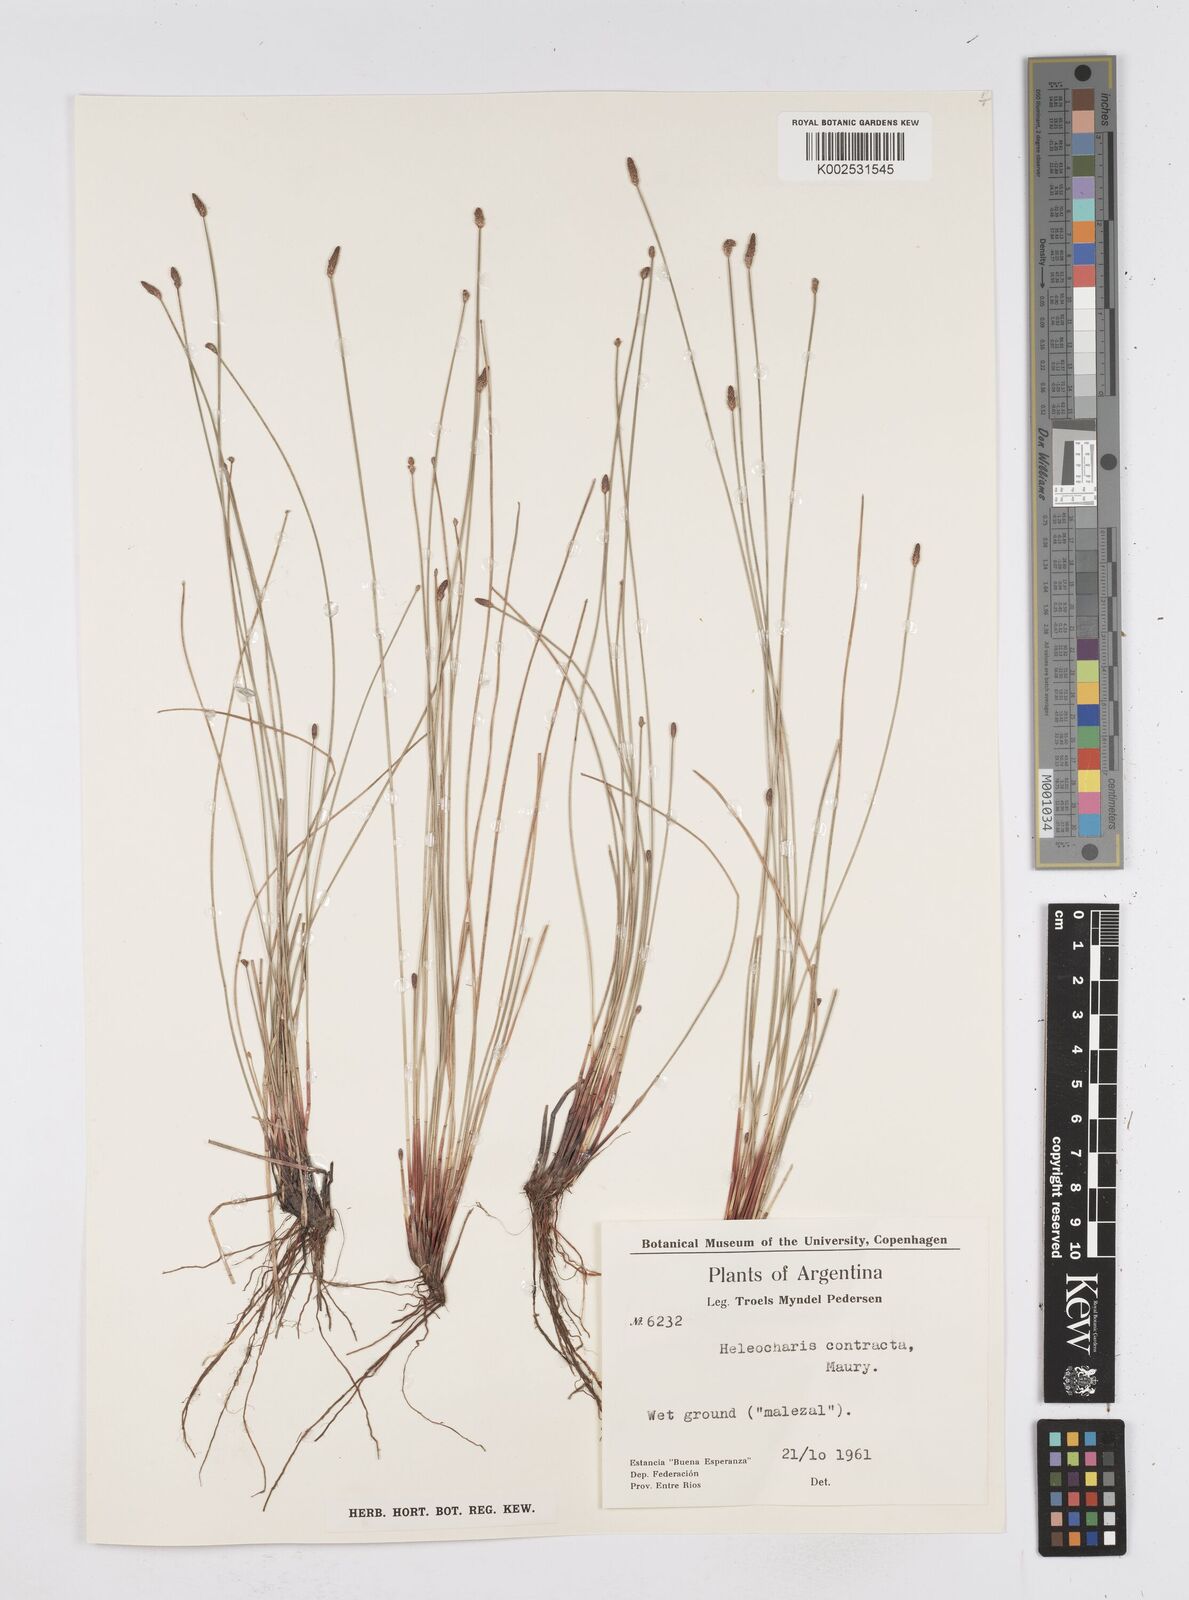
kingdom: Plantae
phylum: Tracheophyta
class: Liliopsida
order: Poales
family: Cyperaceae
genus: Eleocharis
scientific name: Eleocharis montana
